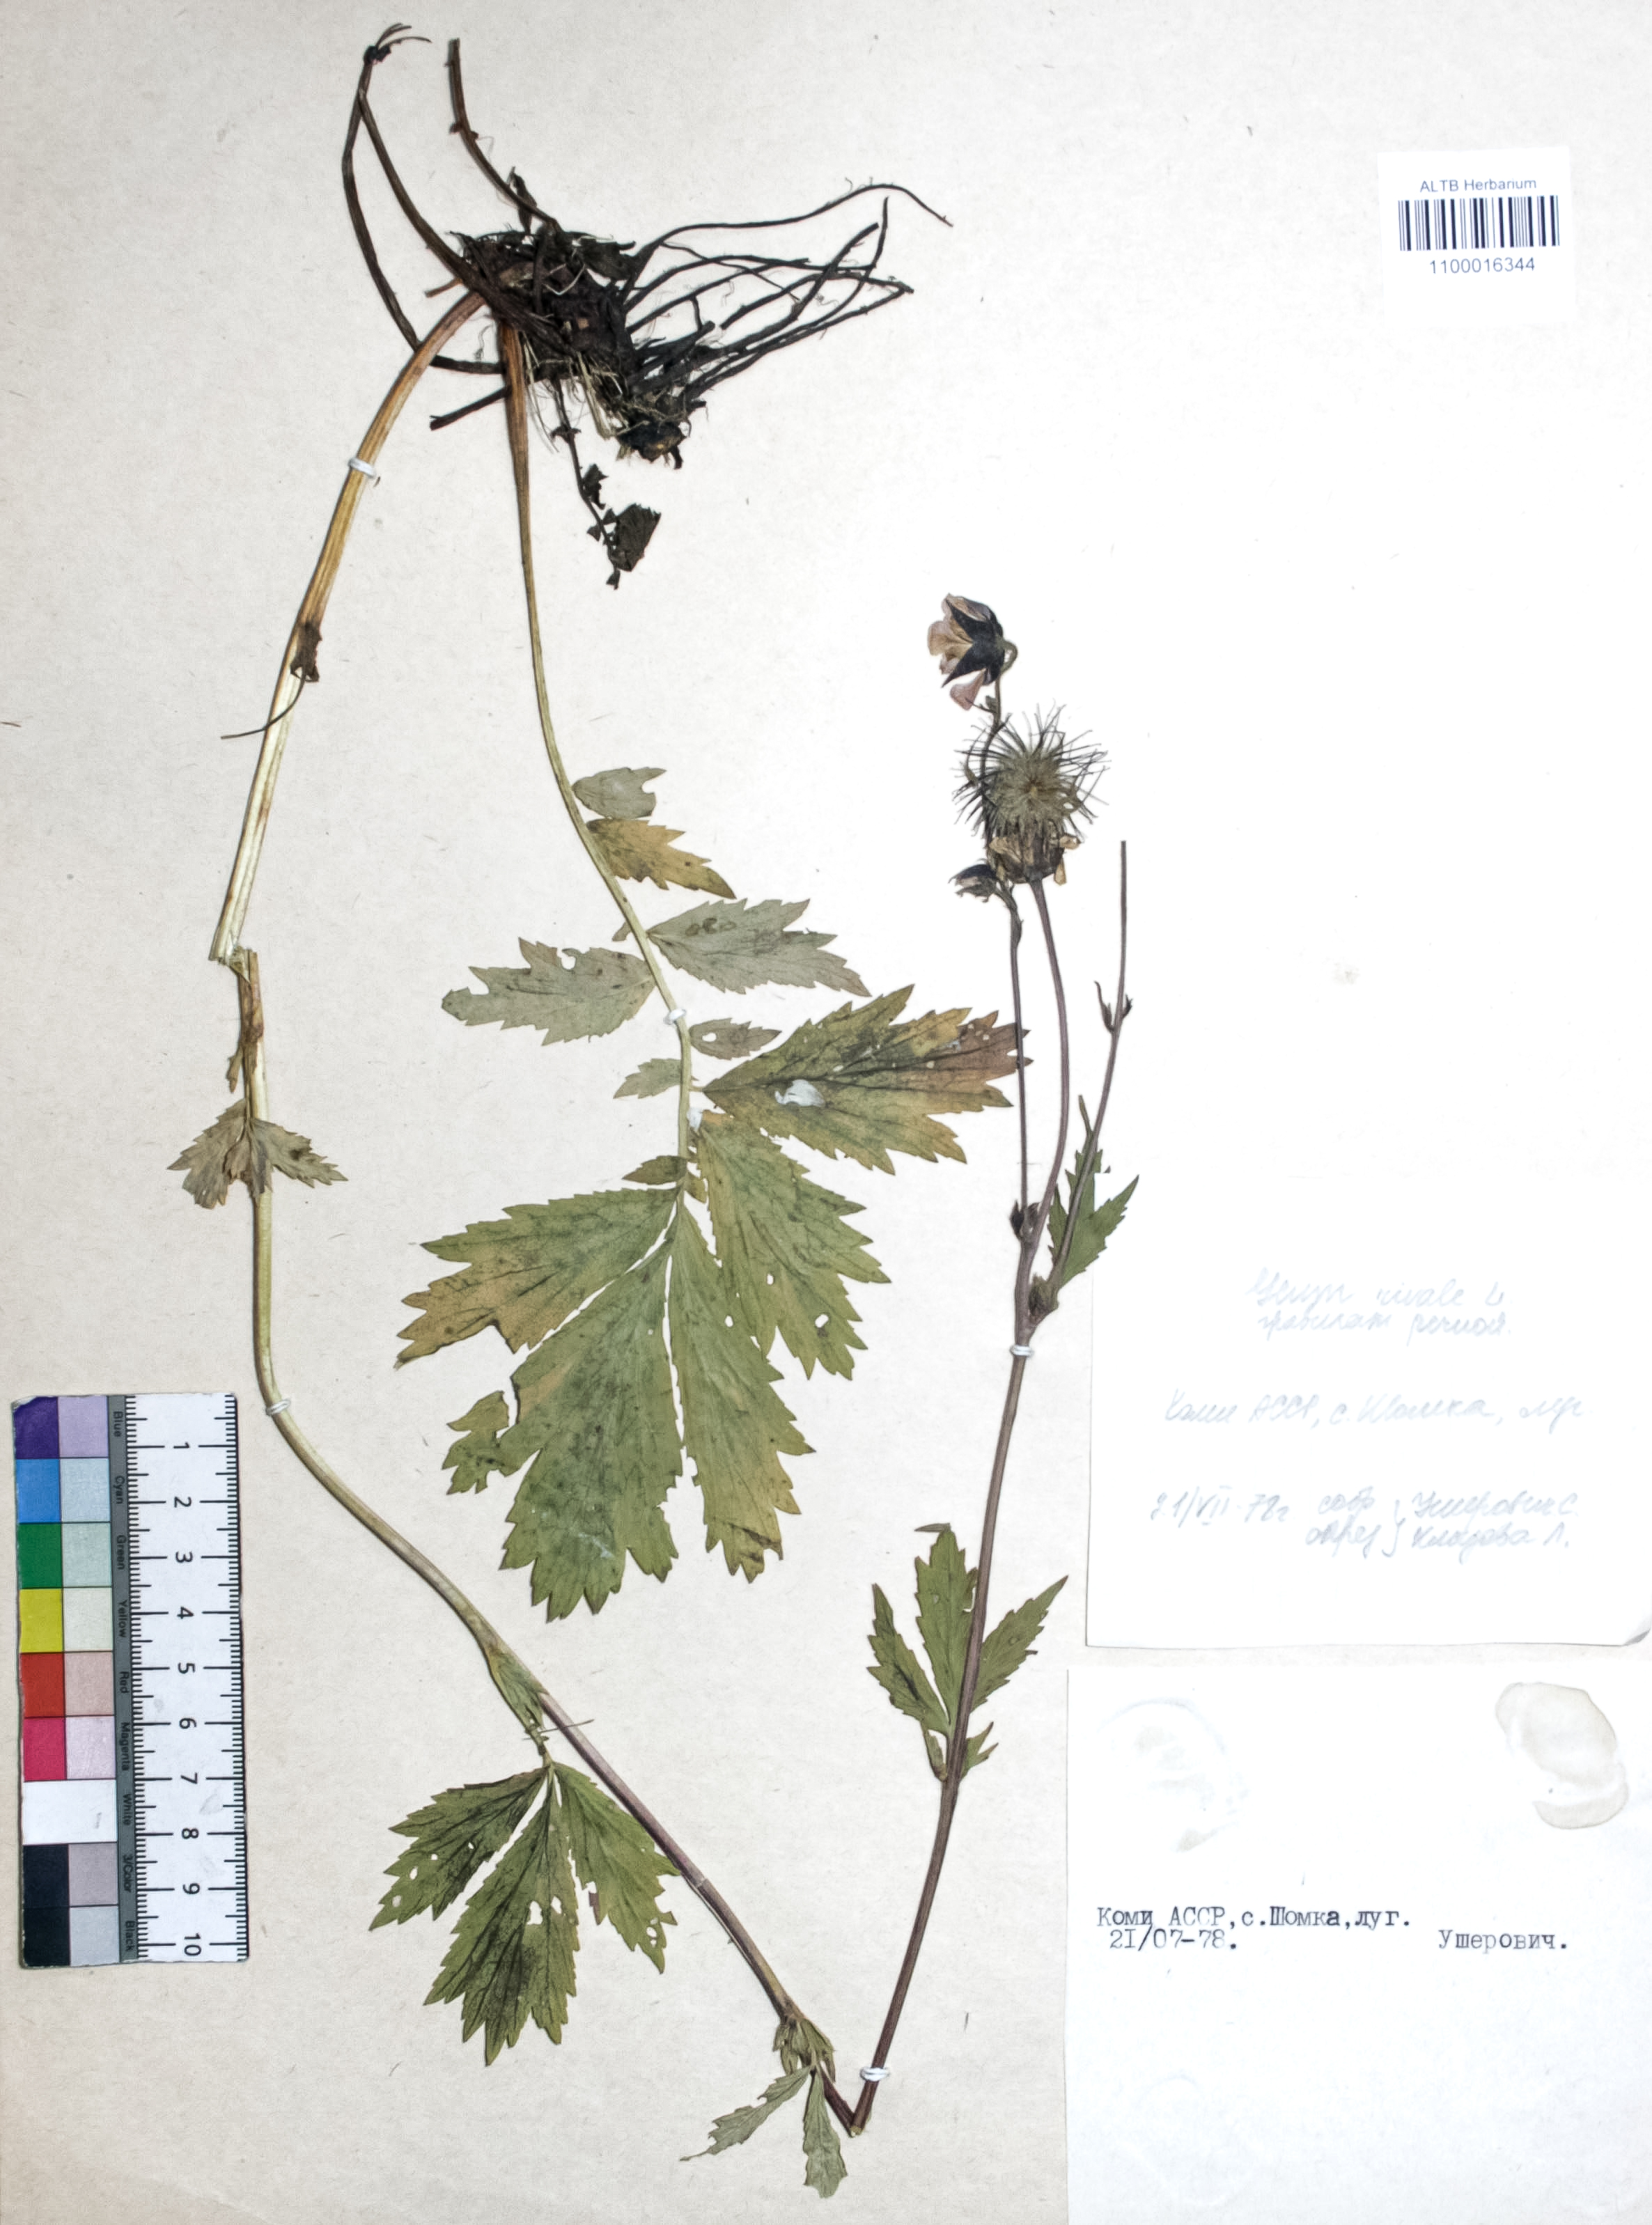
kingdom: Plantae
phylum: Tracheophyta
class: Magnoliopsida
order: Rosales
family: Rosaceae
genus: Geum
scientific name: Geum urbanum
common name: Wood avens
